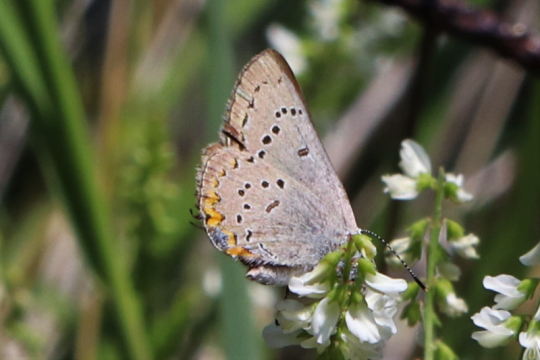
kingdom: Animalia
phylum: Arthropoda
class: Insecta
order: Lepidoptera
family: Lycaenidae
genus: Strymon
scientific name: Strymon acadica
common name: Acadian Hairstreak
